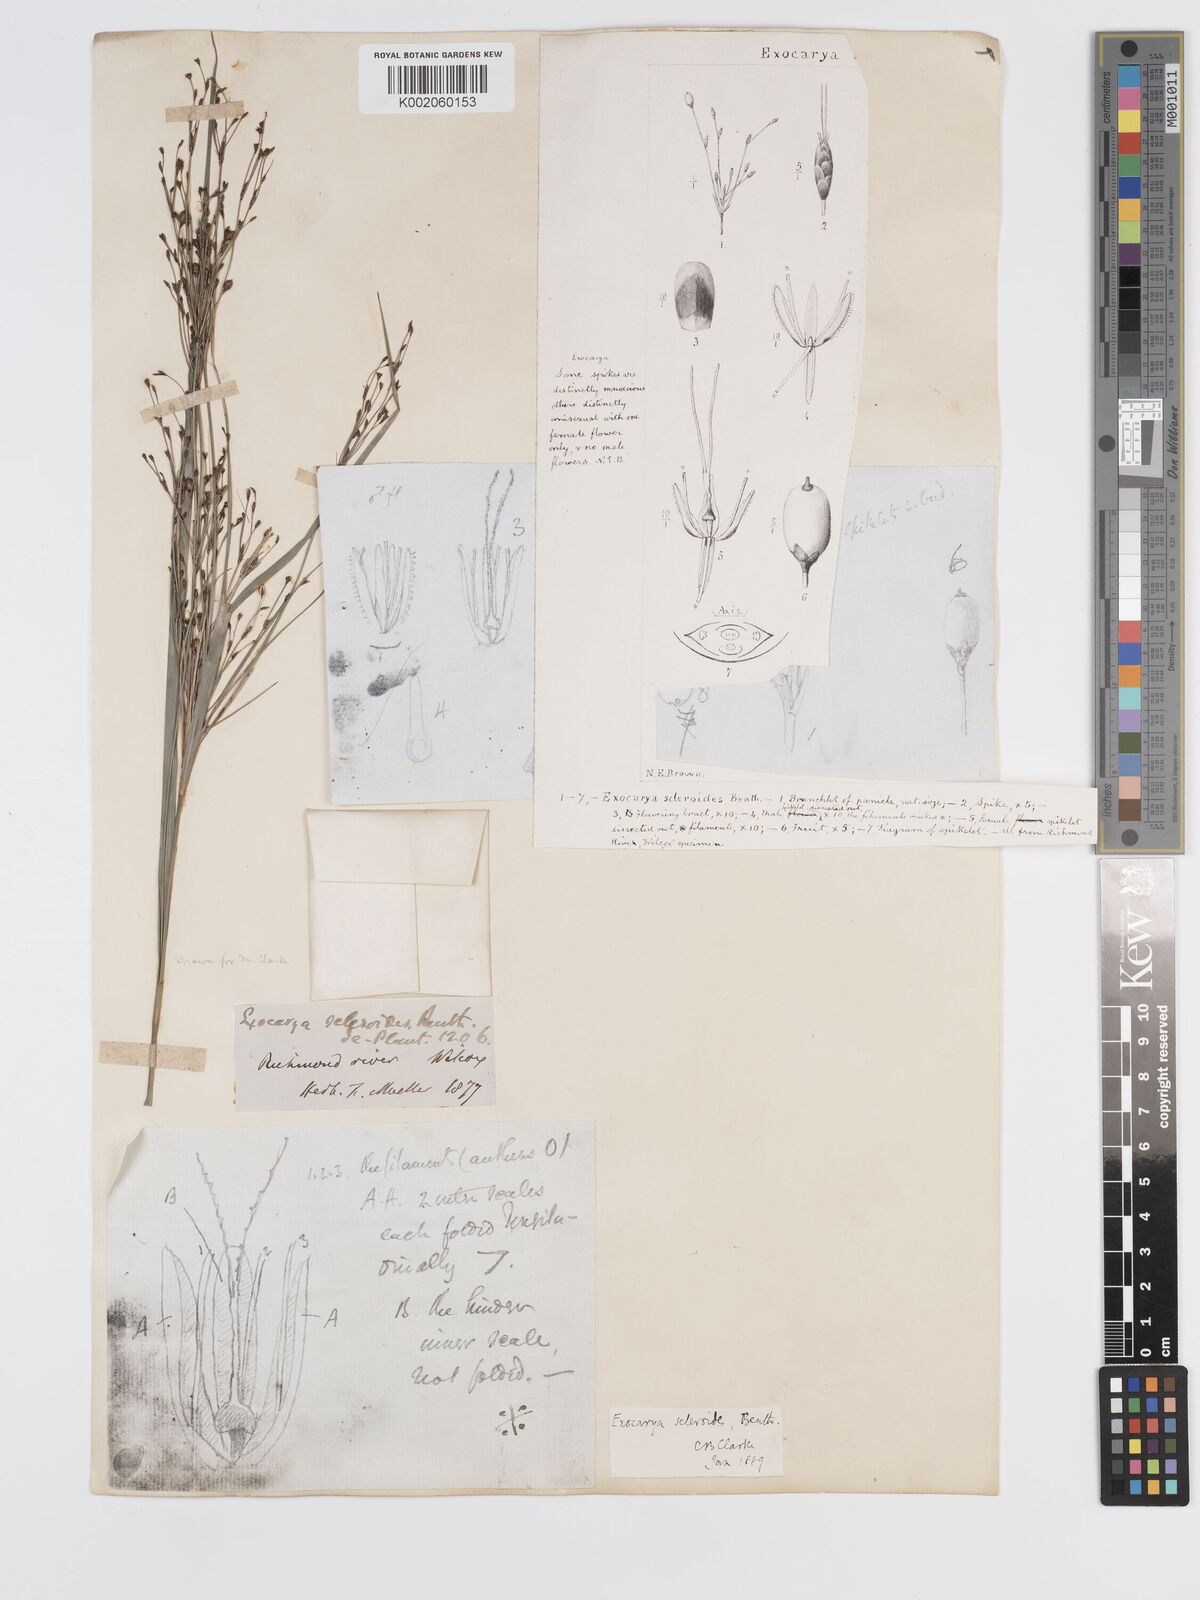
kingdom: Plantae
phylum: Tracheophyta
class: Liliopsida
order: Poales
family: Cyperaceae
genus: Exocarya
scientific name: Exocarya sclerioides
